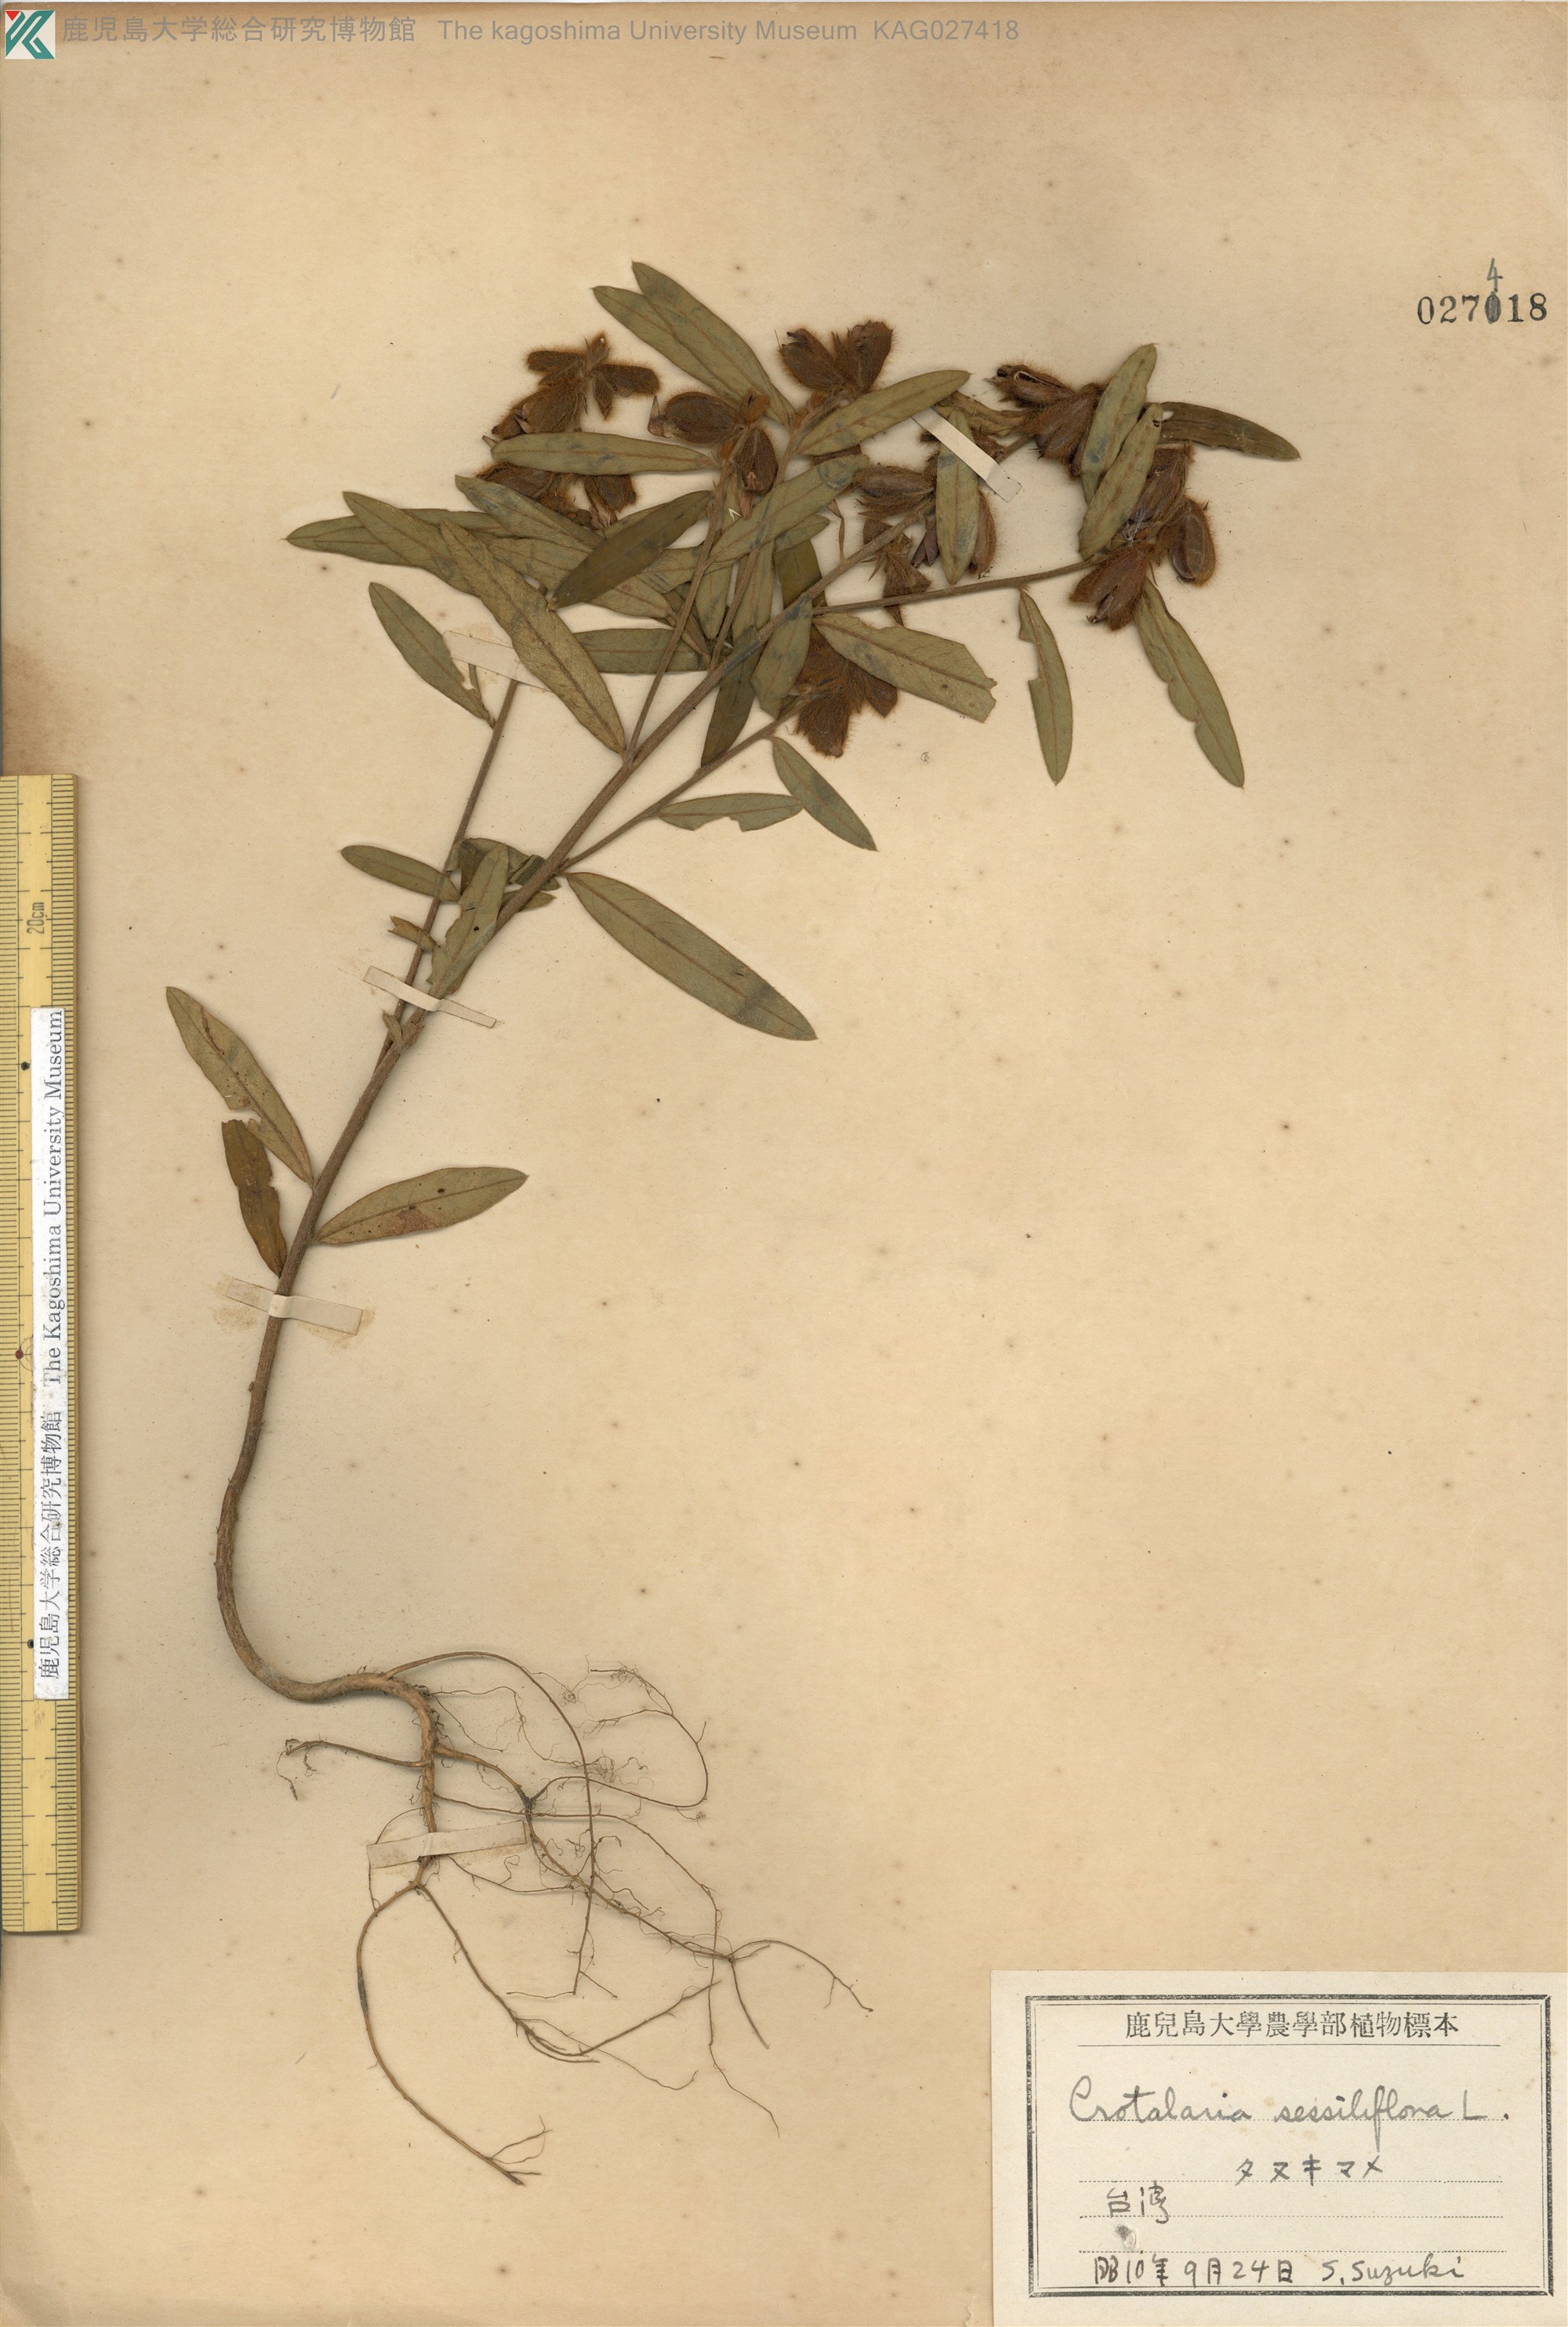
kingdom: Plantae
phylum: Tracheophyta
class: Magnoliopsida
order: Fabales
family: Fabaceae
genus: Crotalaria
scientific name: Crotalaria sessiliflora
